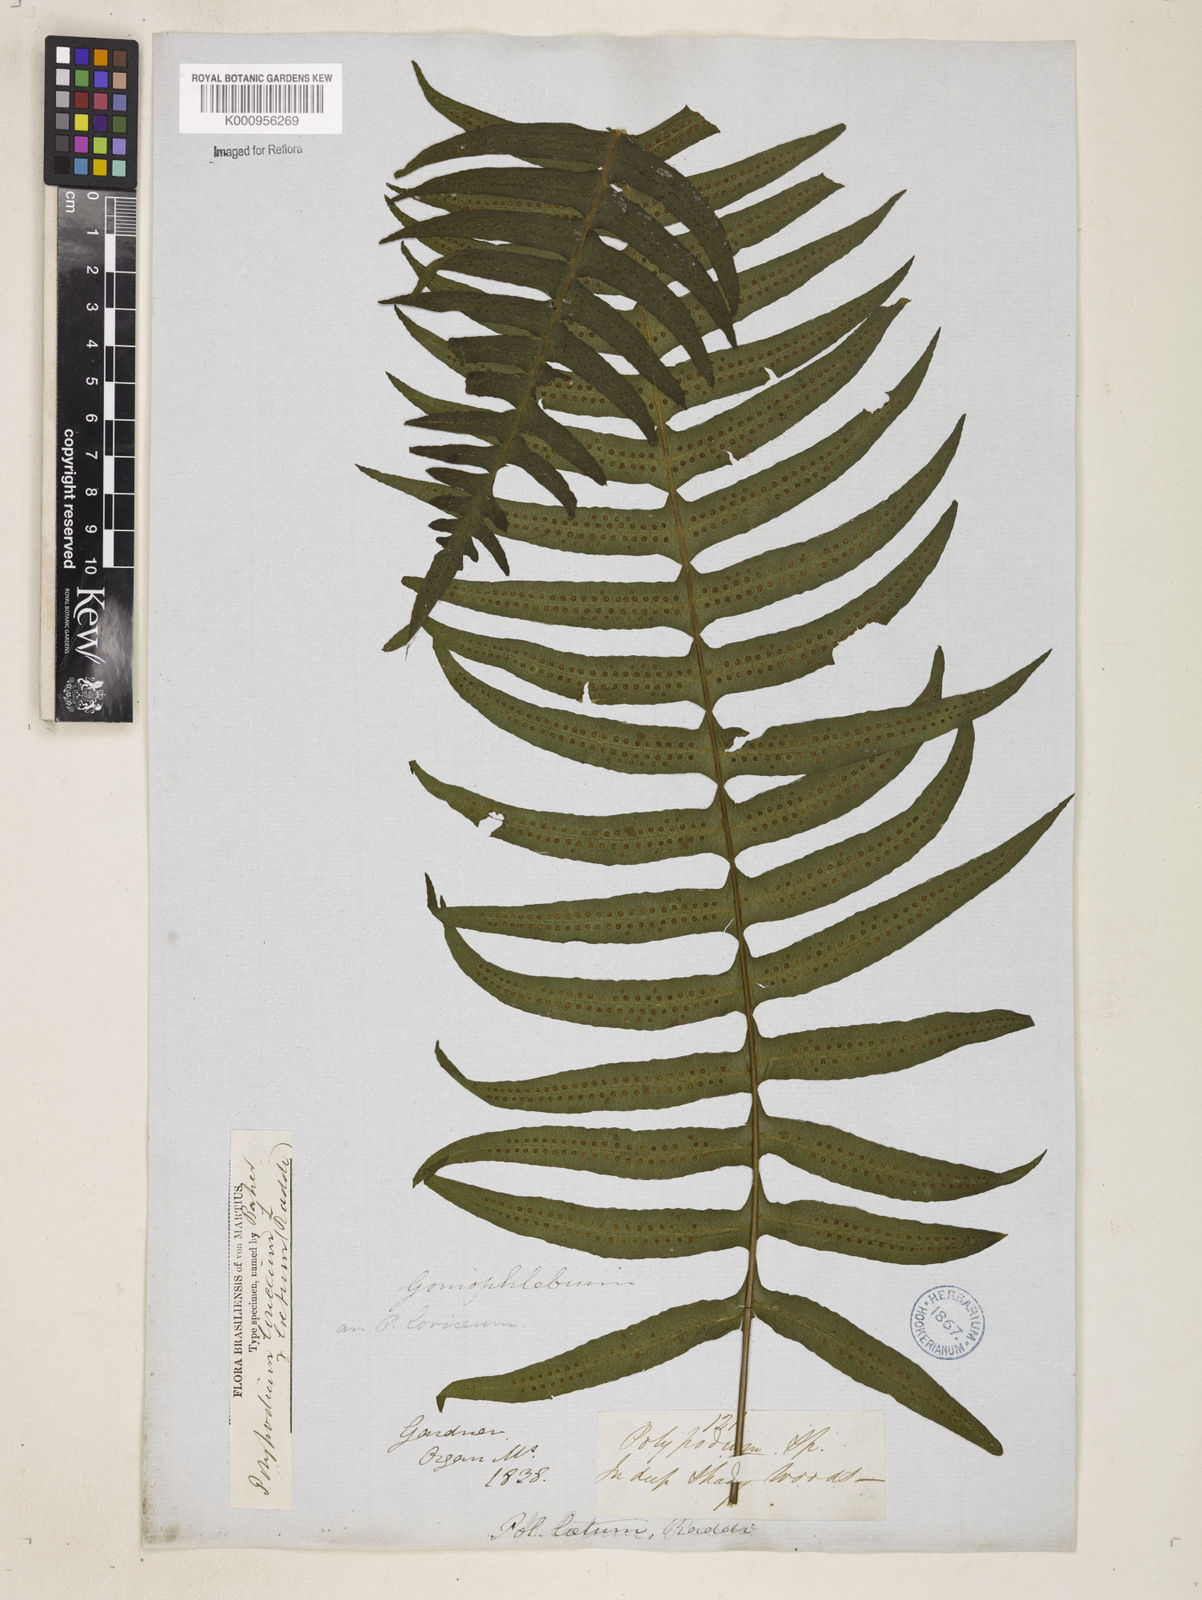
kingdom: Plantae
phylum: Tracheophyta
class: Polypodiopsida
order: Polypodiales
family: Polypodiaceae
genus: Serpocaulon
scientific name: Serpocaulon loriceum
